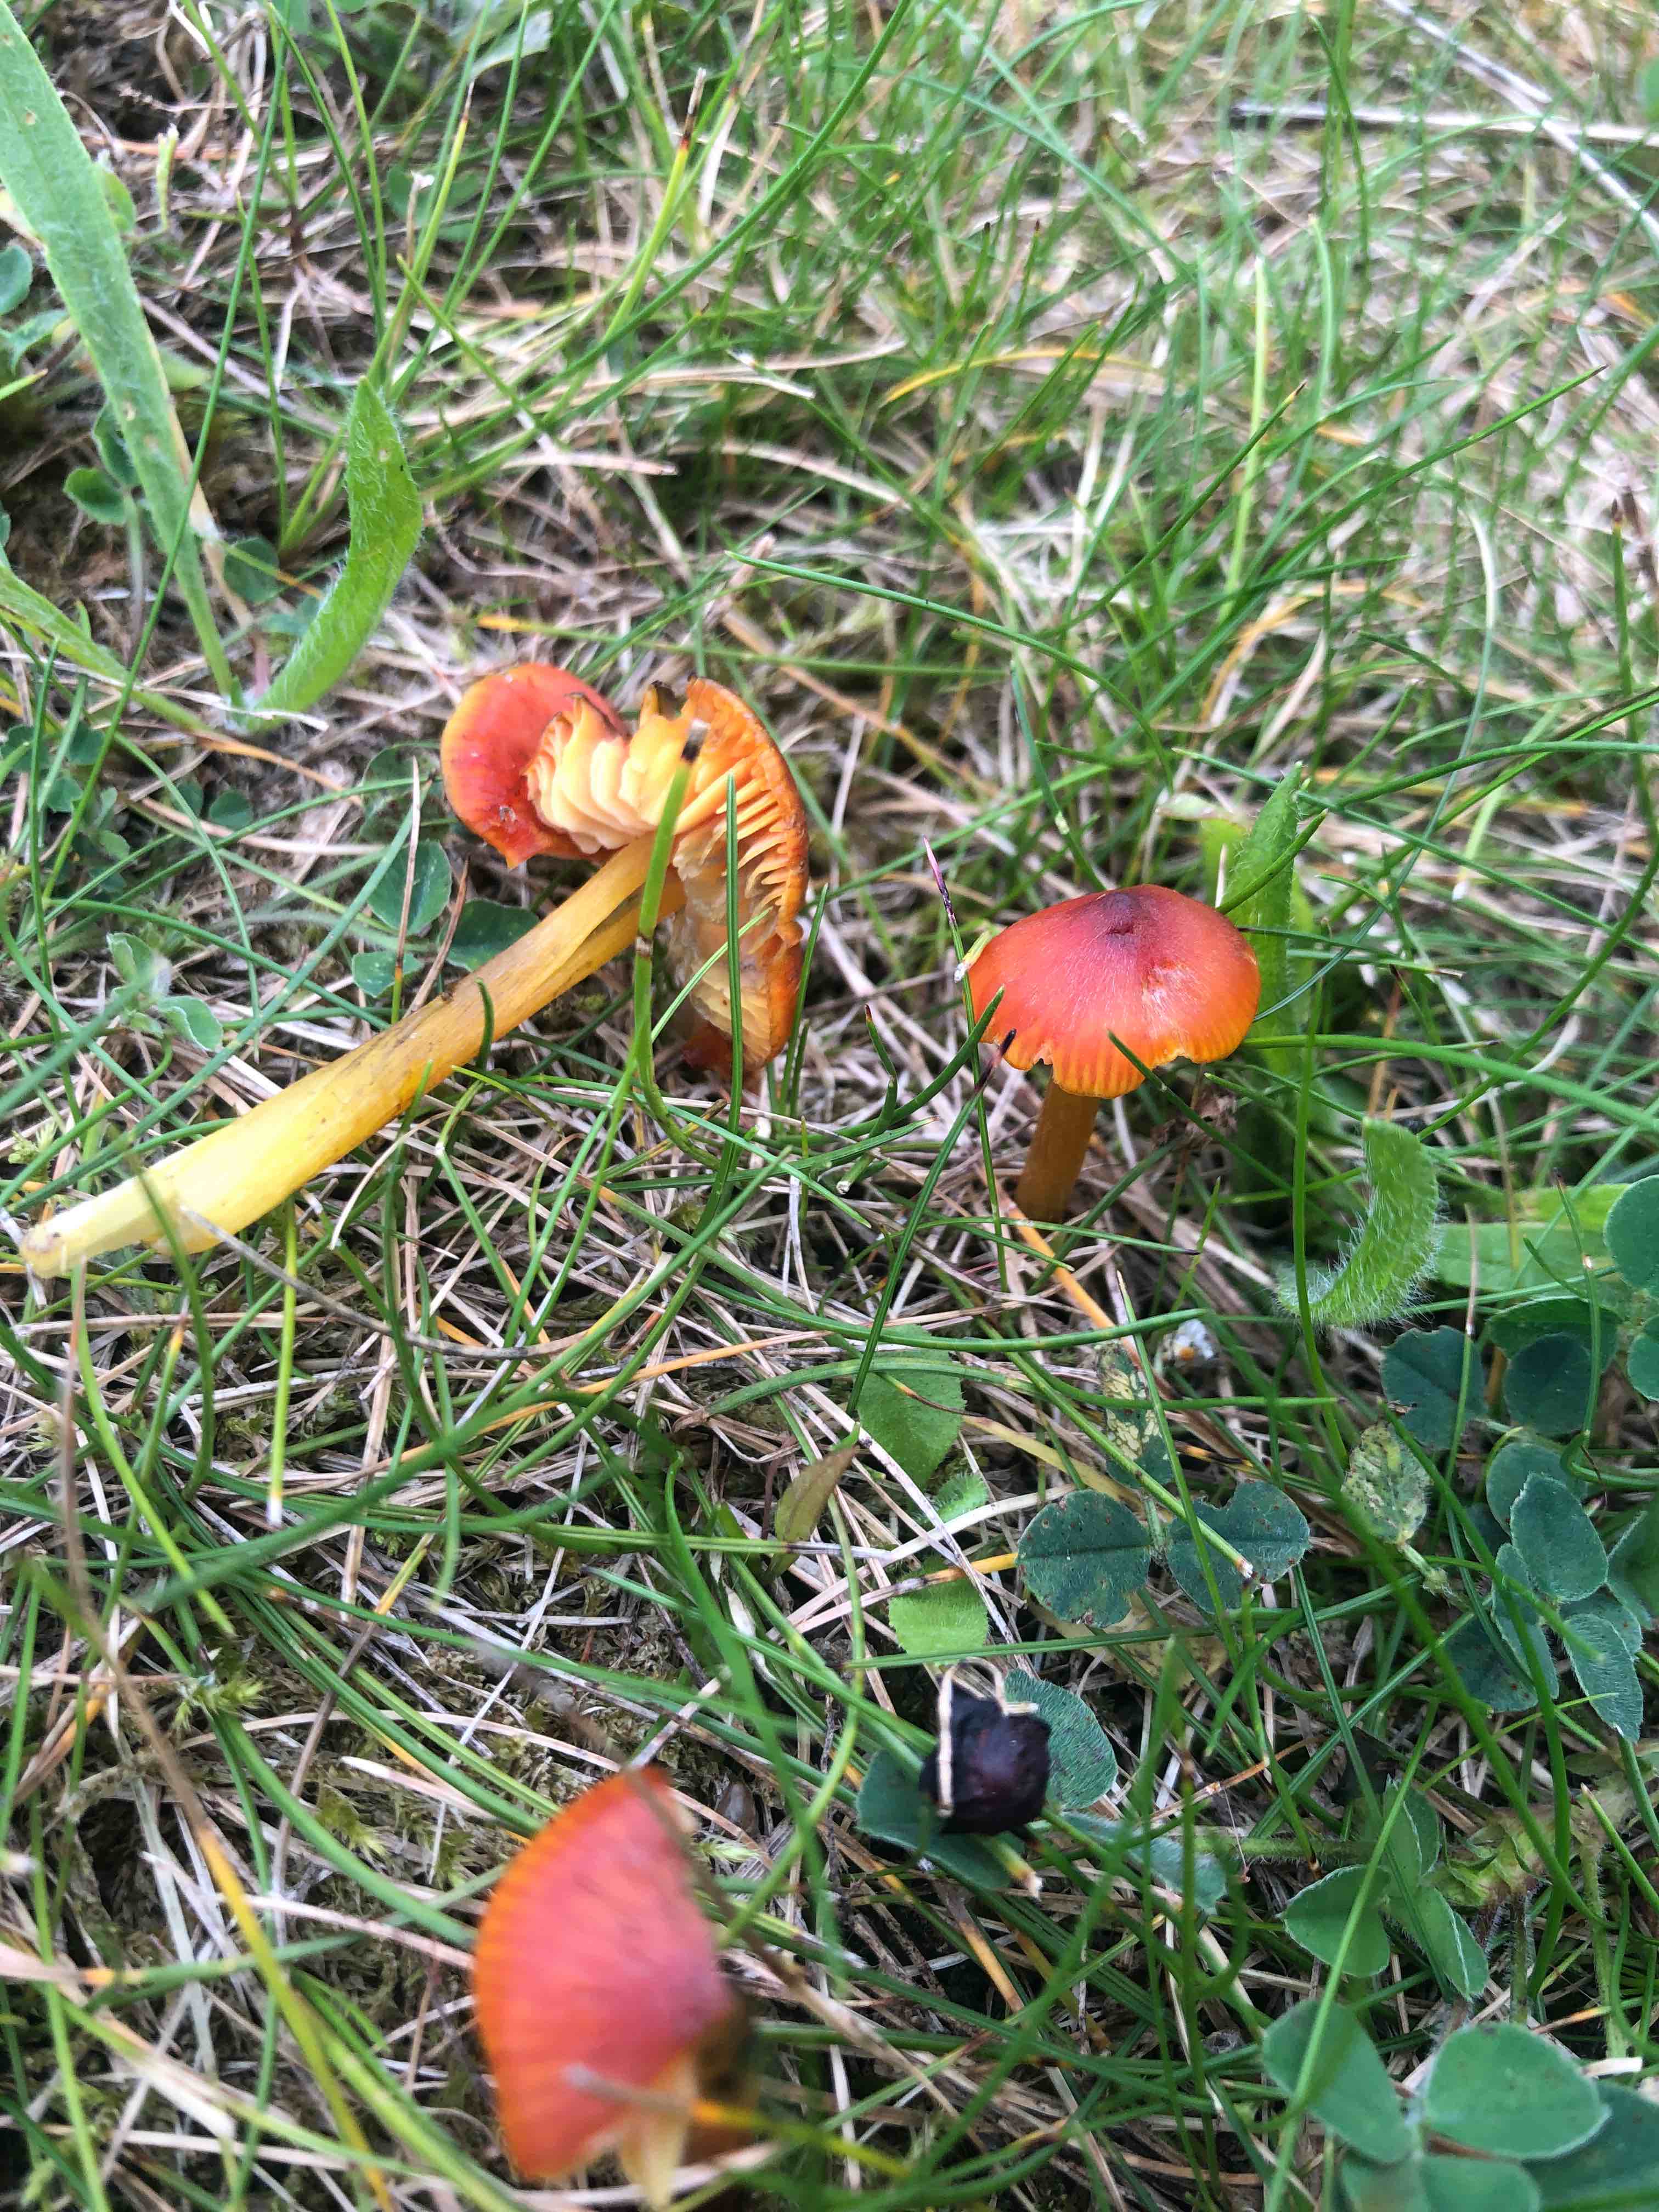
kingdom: Fungi
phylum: Basidiomycota
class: Agaricomycetes
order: Agaricales
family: Hygrophoraceae
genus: Hygrocybe
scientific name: Hygrocybe conica
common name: kegle-vokshat
